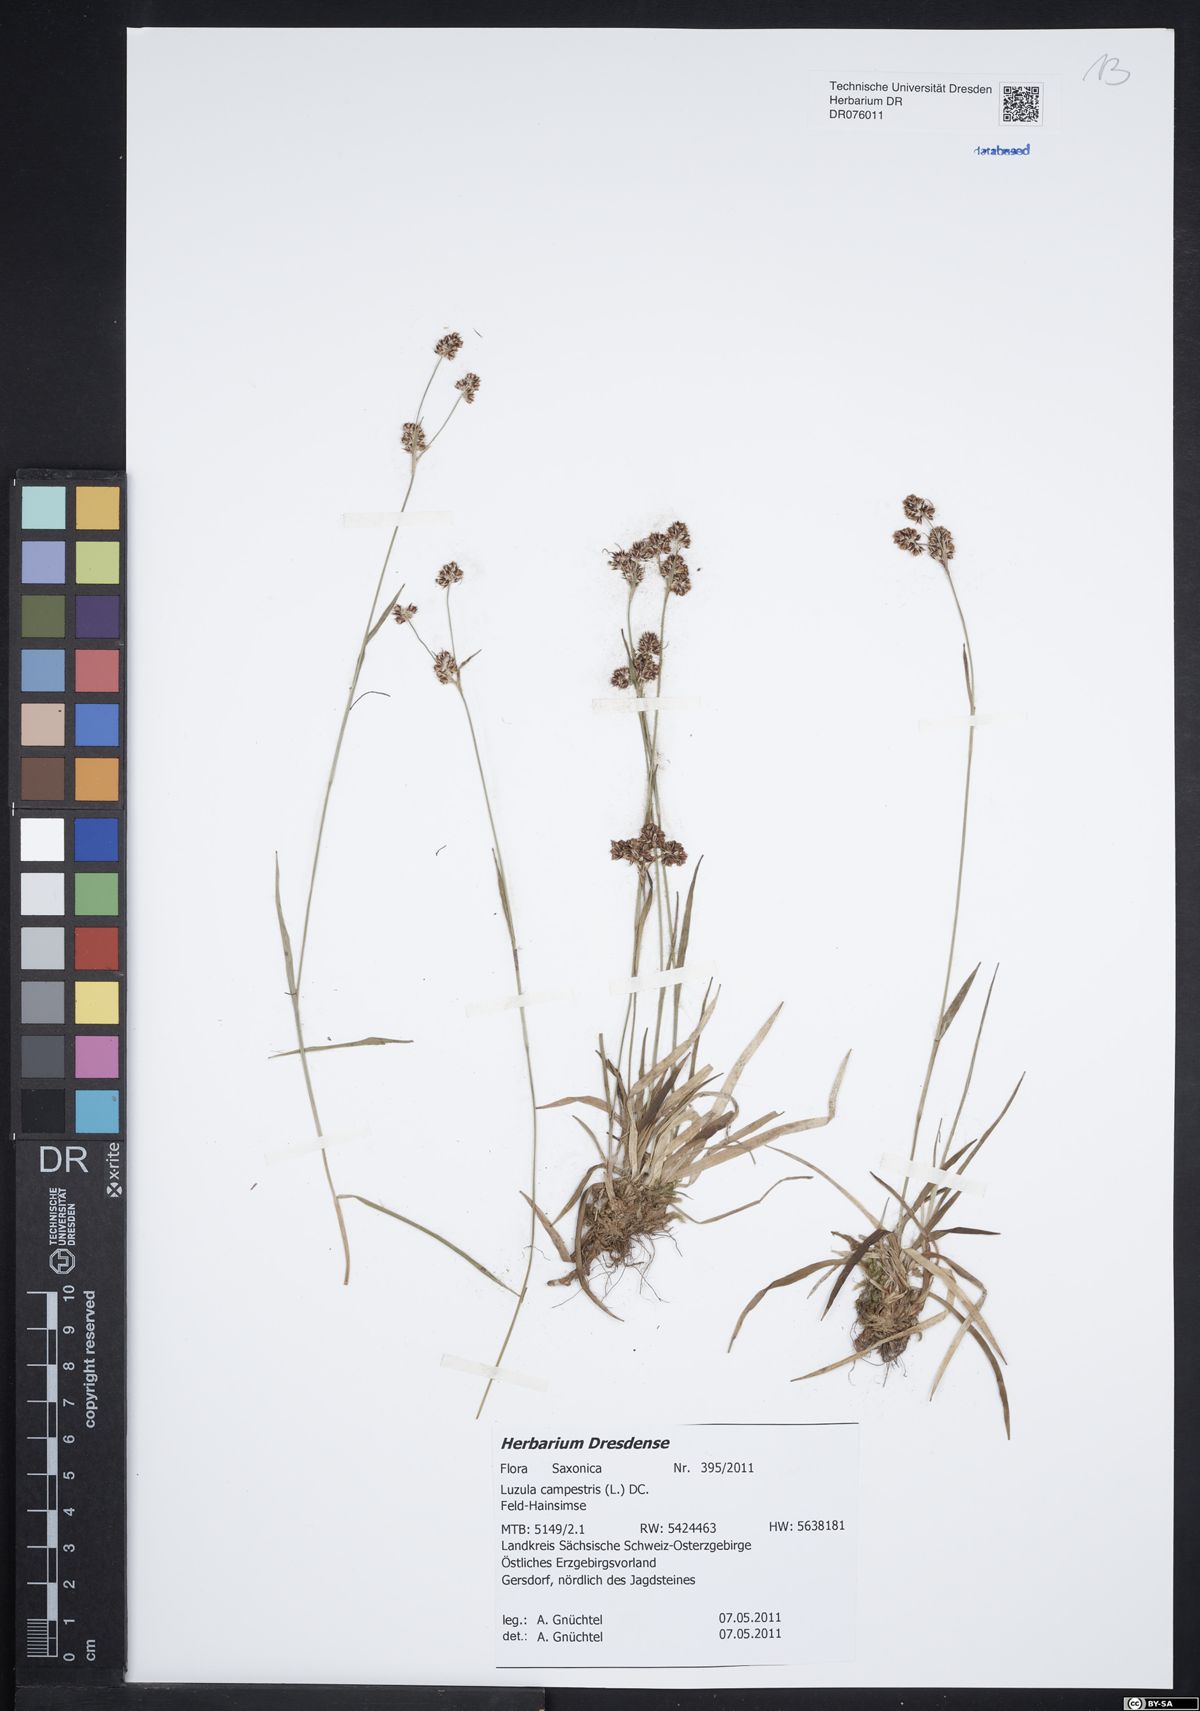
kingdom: Plantae
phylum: Tracheophyta
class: Liliopsida
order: Poales
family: Juncaceae
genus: Luzula
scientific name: Luzula campestris
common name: Field wood-rush
